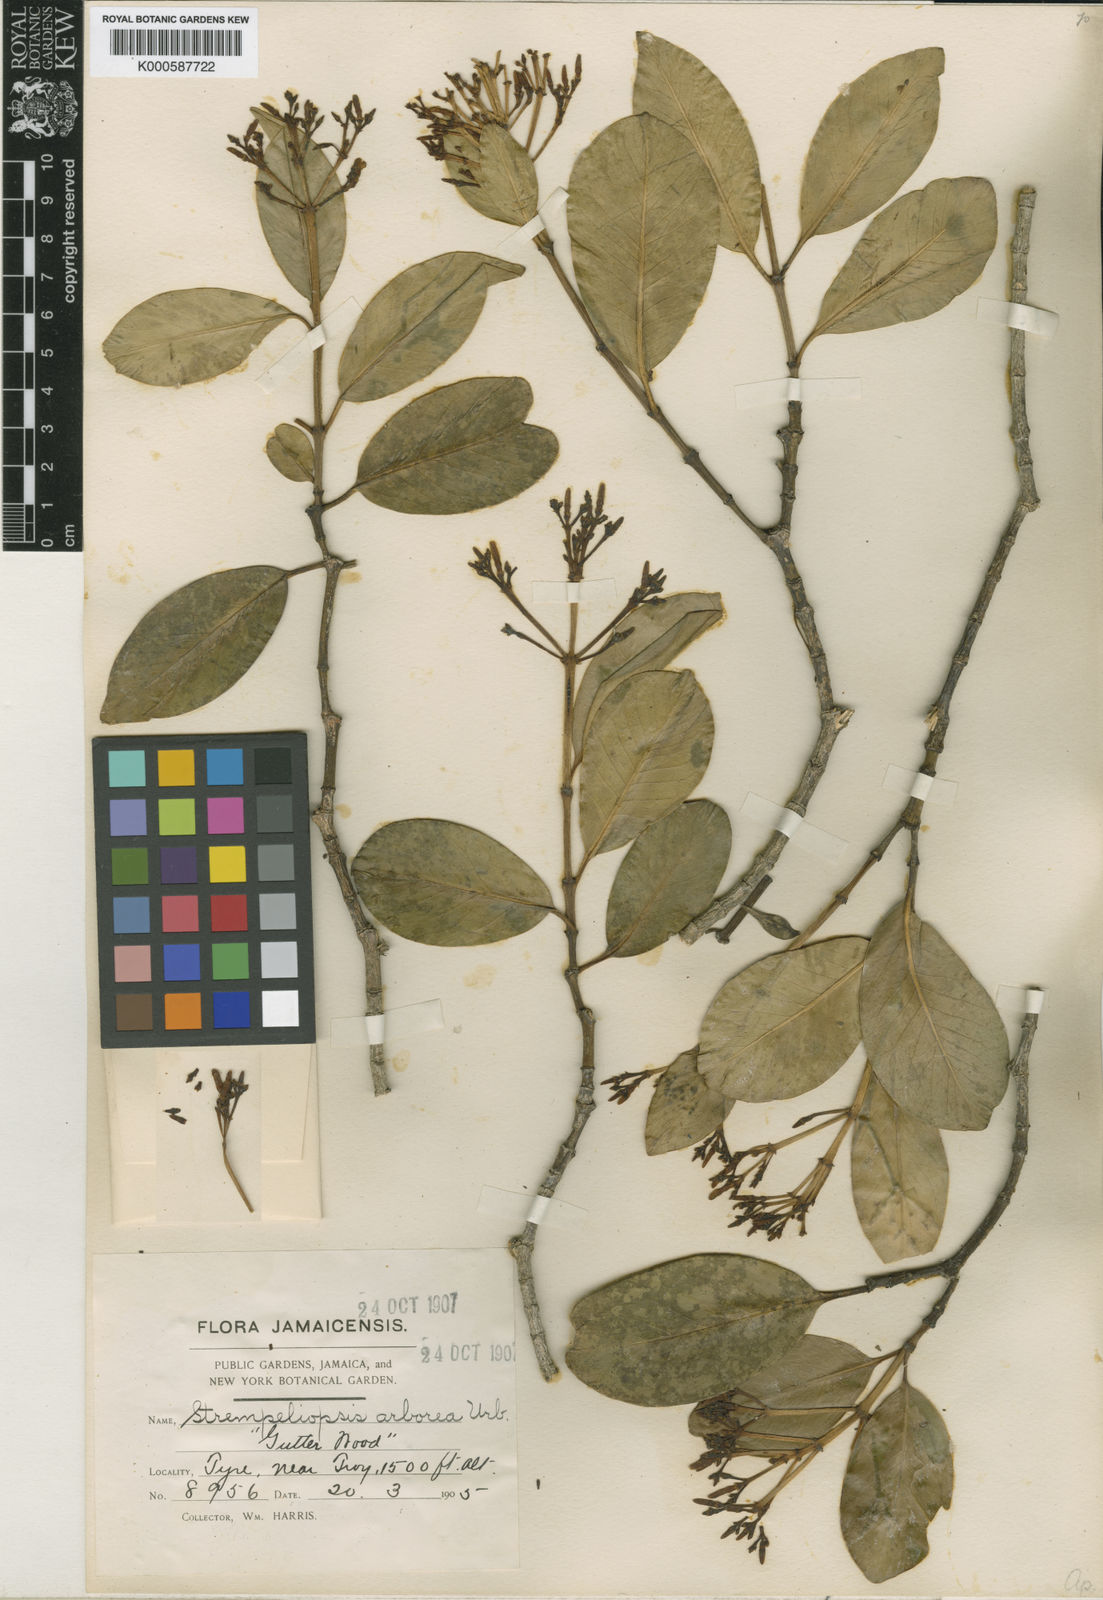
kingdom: Plantae
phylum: Tracheophyta
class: Magnoliopsida
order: Gentianales
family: Apocynaceae
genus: Strempeliopsis
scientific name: Strempeliopsis arborea
